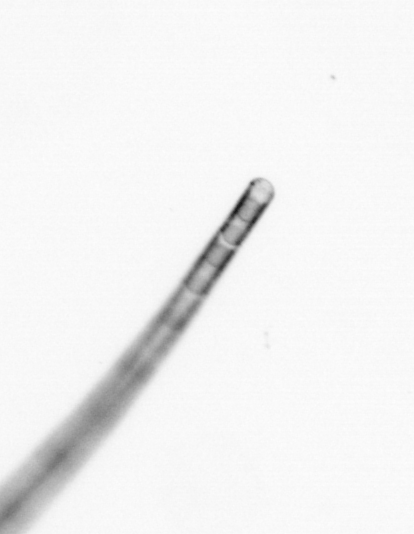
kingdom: Chromista
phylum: Ochrophyta
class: Bacillariophyceae
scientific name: Bacillariophyceae
